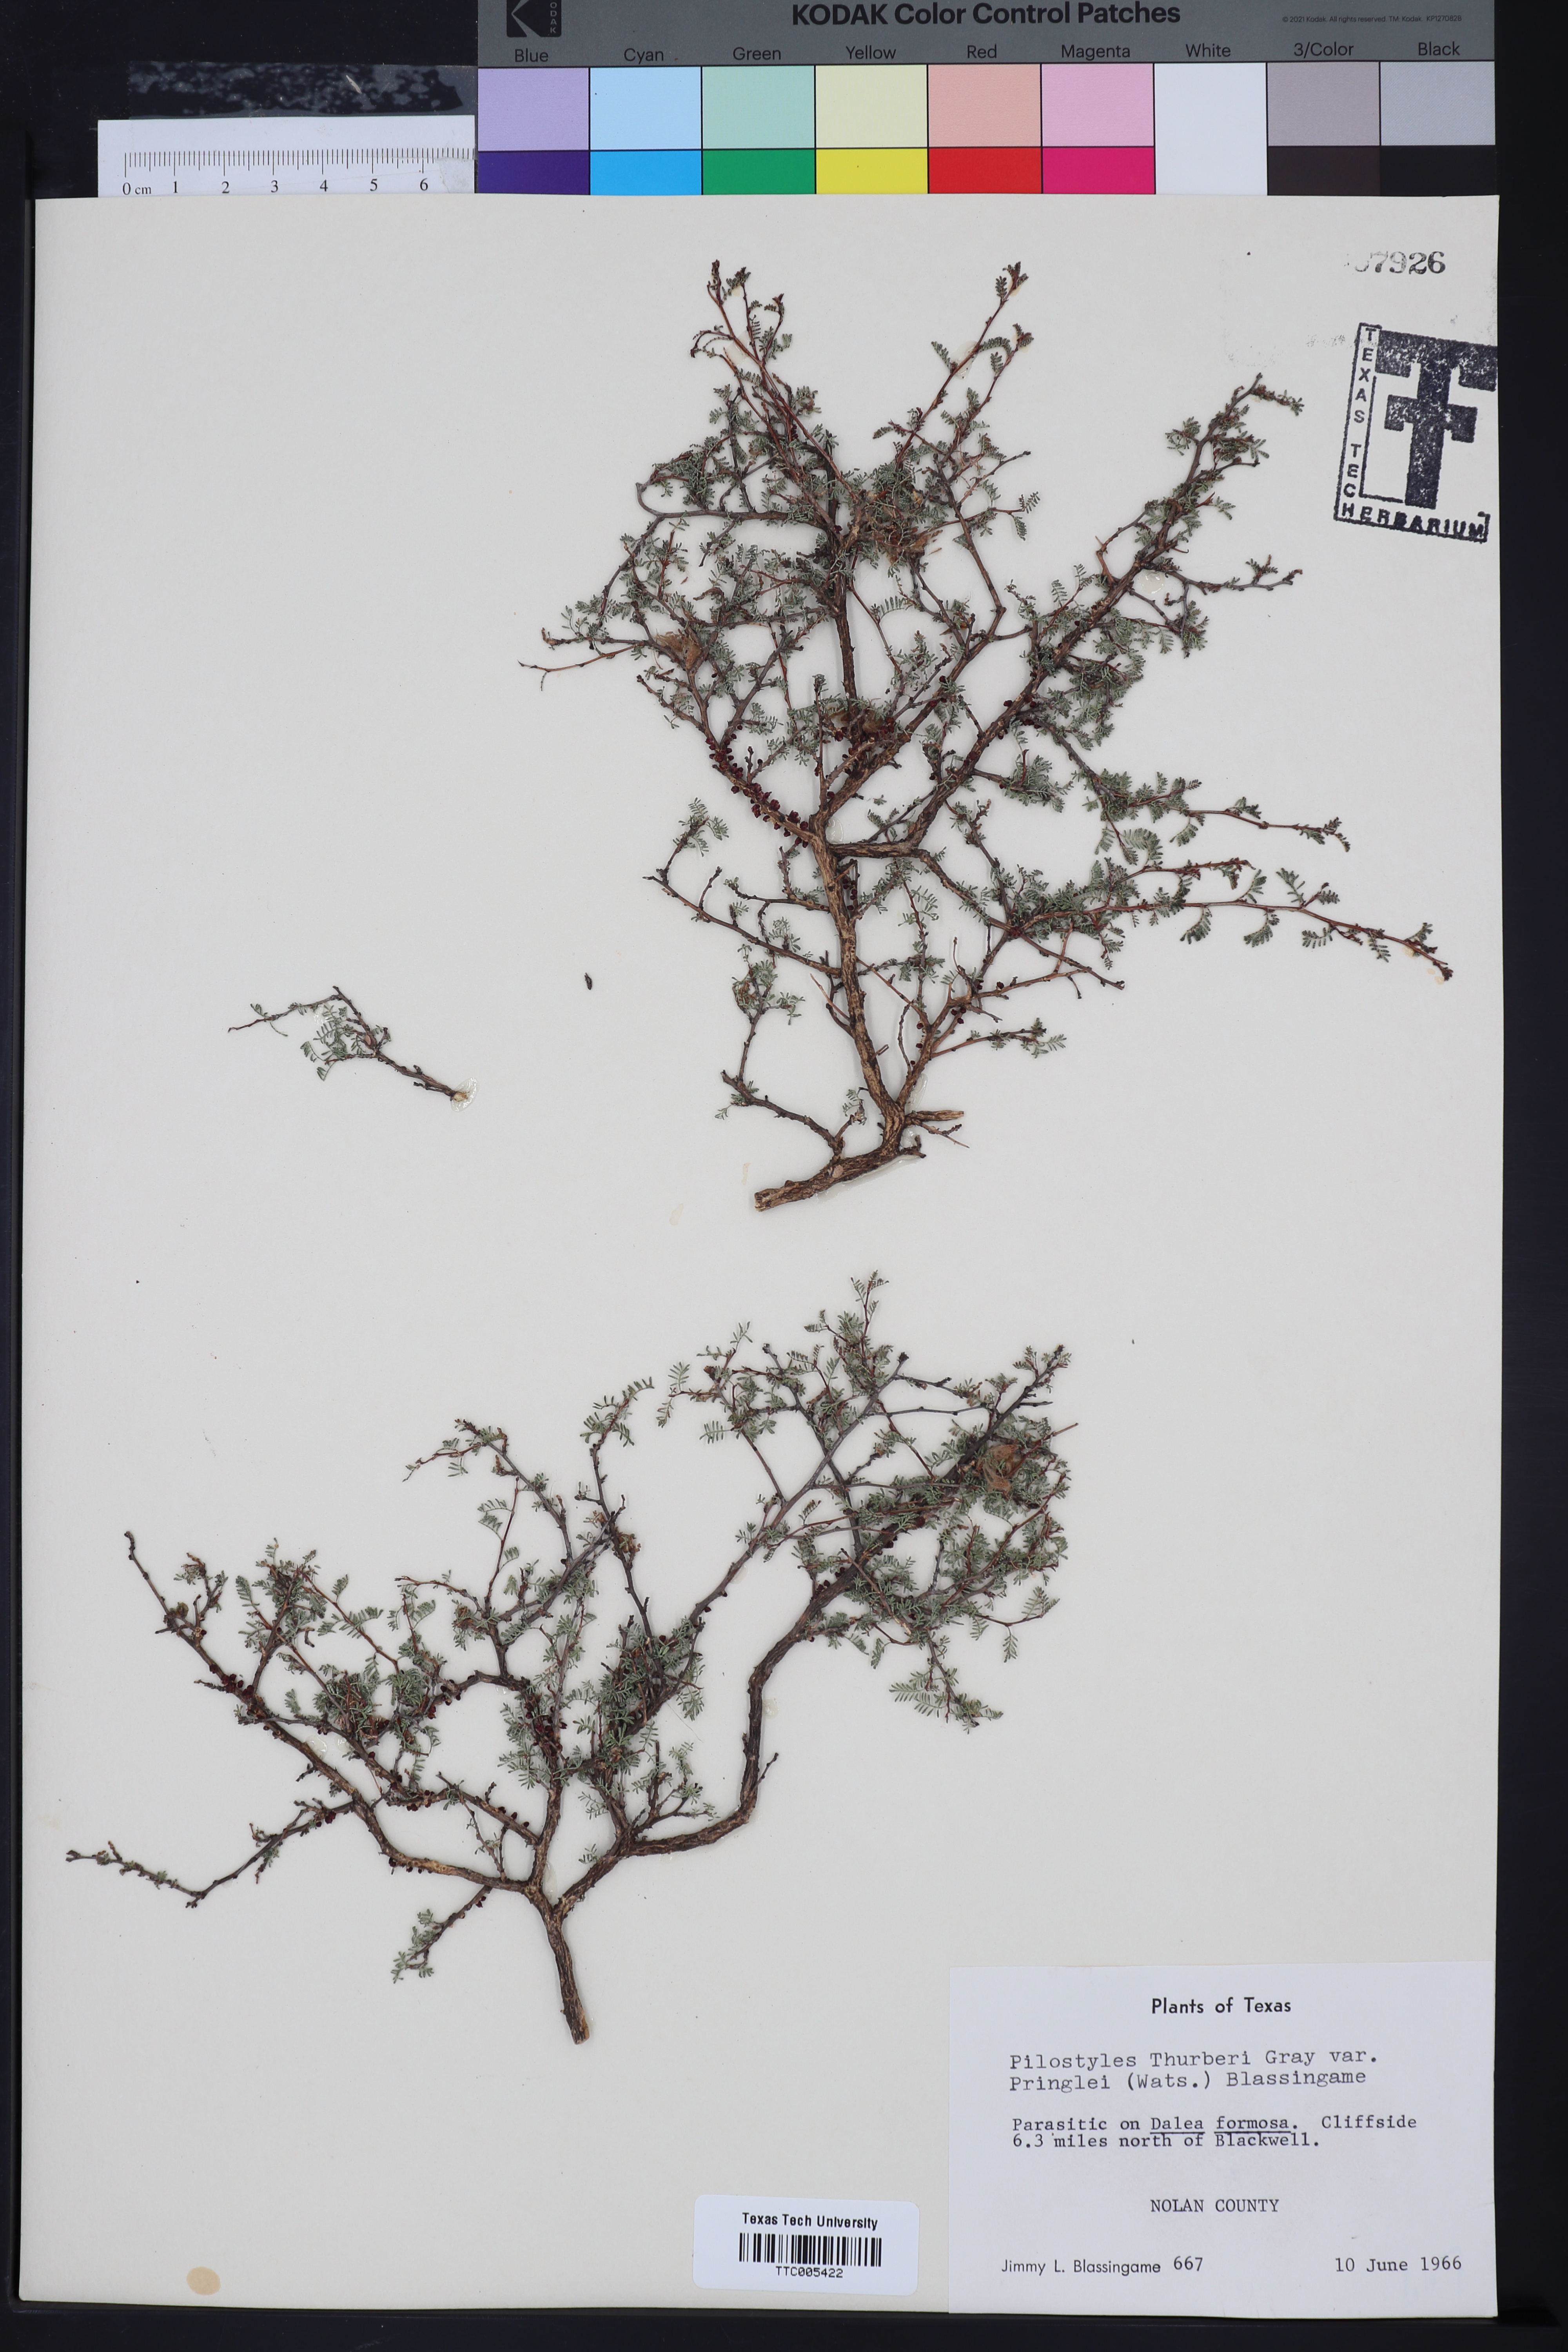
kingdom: Plantae
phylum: Tracheophyta
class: Magnoliopsida
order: Cucurbitales
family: Apodanthaceae
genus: Pilostyles
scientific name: Pilostyles thurberi
